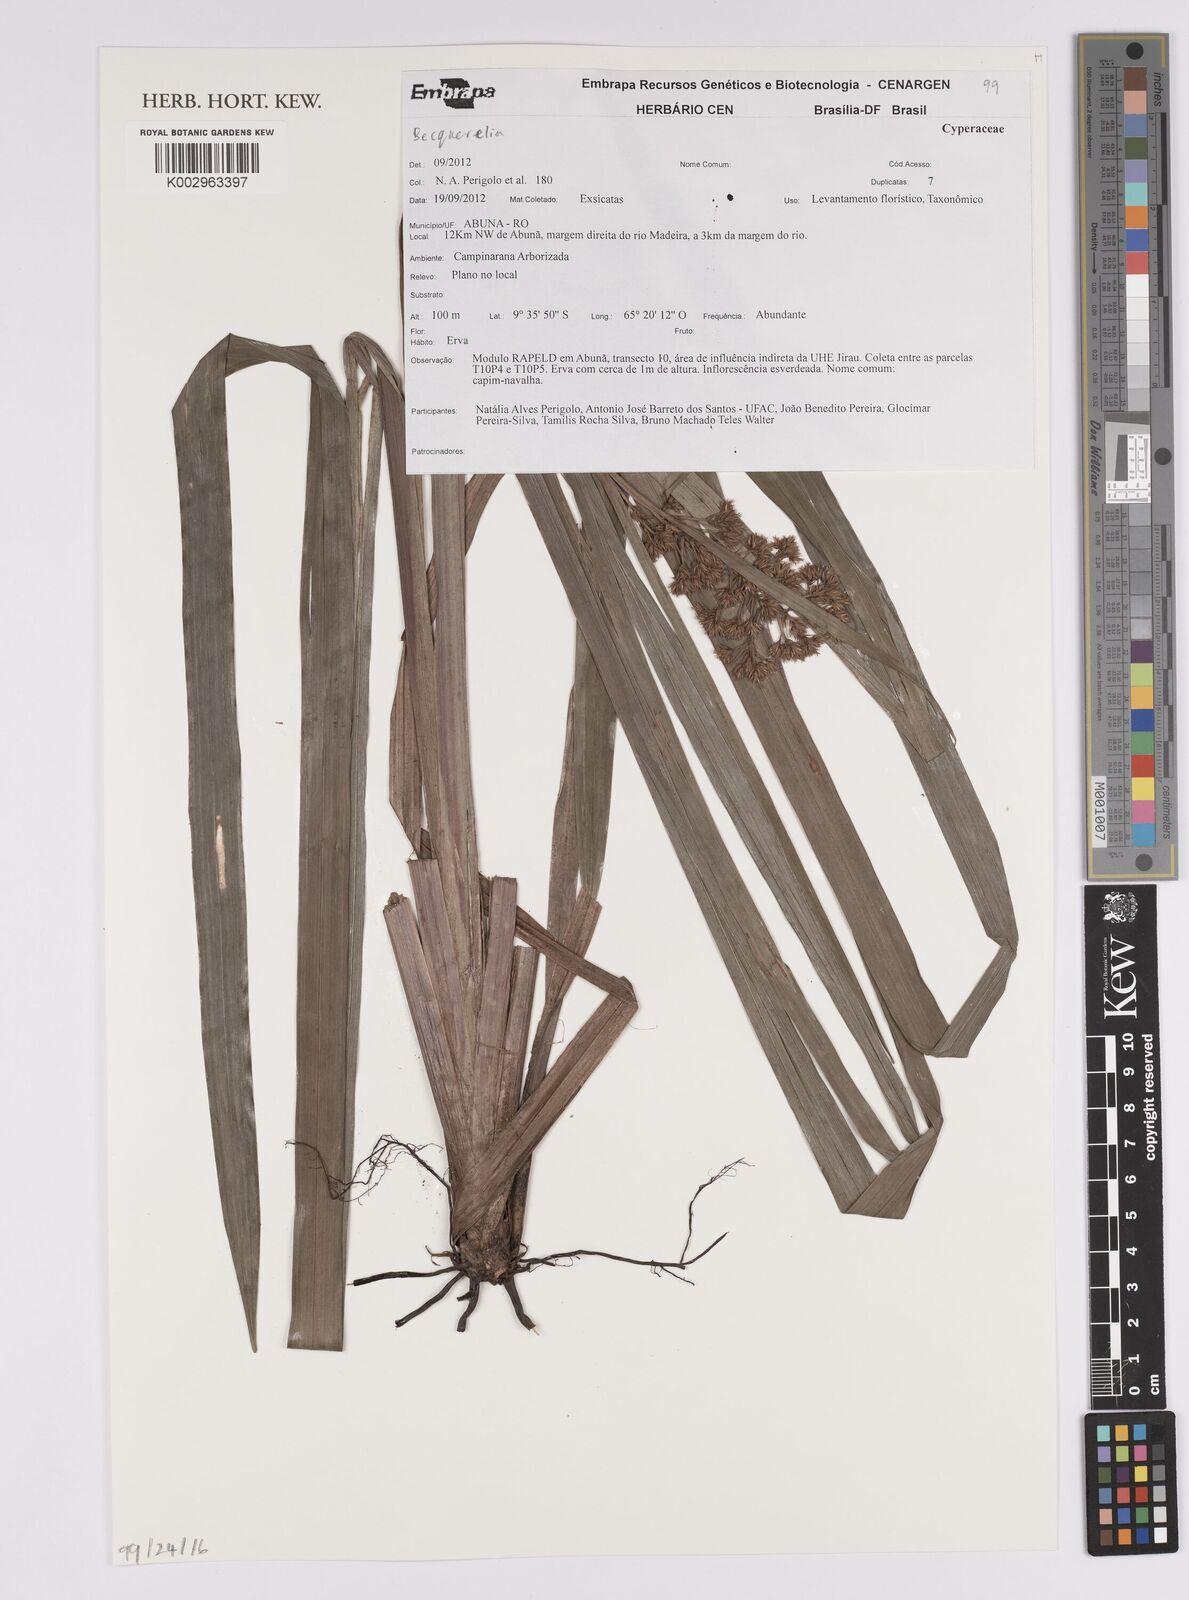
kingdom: Plantae
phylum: Tracheophyta
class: Liliopsida
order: Poales
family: Cyperaceae
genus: Becquerelia
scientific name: Becquerelia
